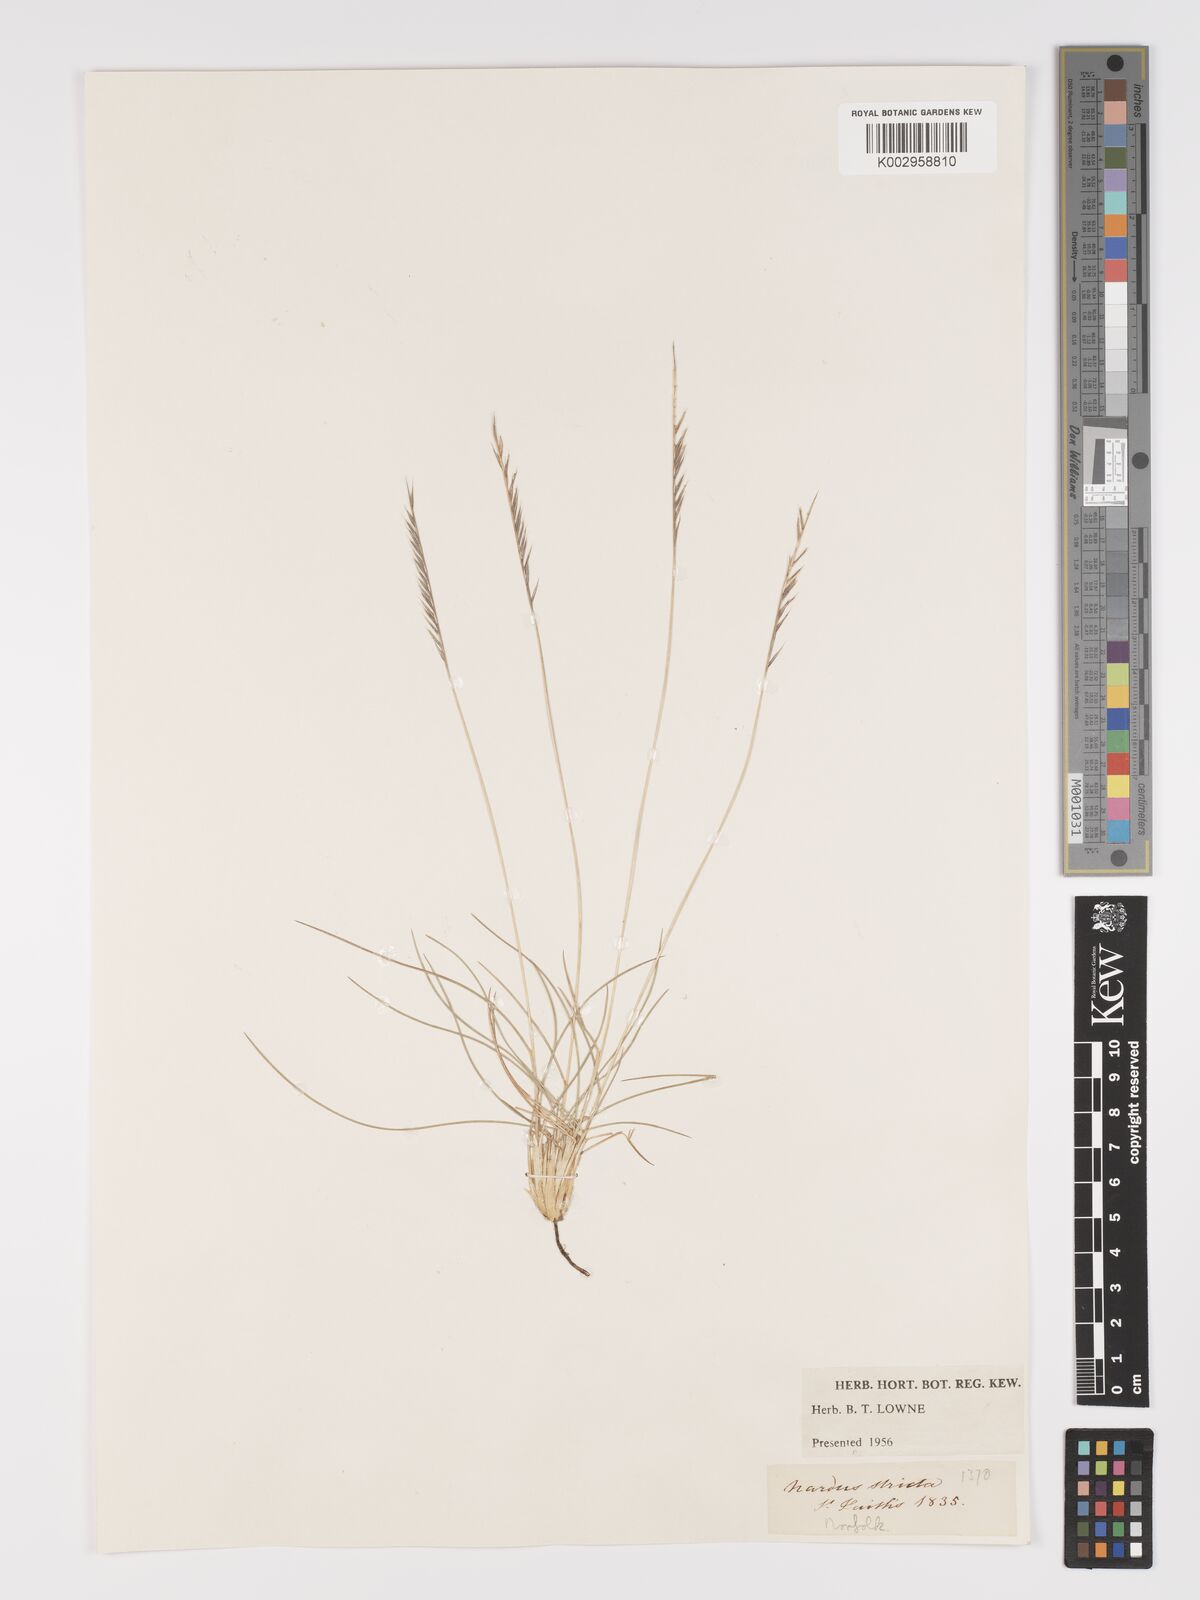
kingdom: Plantae
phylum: Tracheophyta
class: Liliopsida
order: Poales
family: Poaceae
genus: Nardus
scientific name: Nardus stricta
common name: Mat-grass
